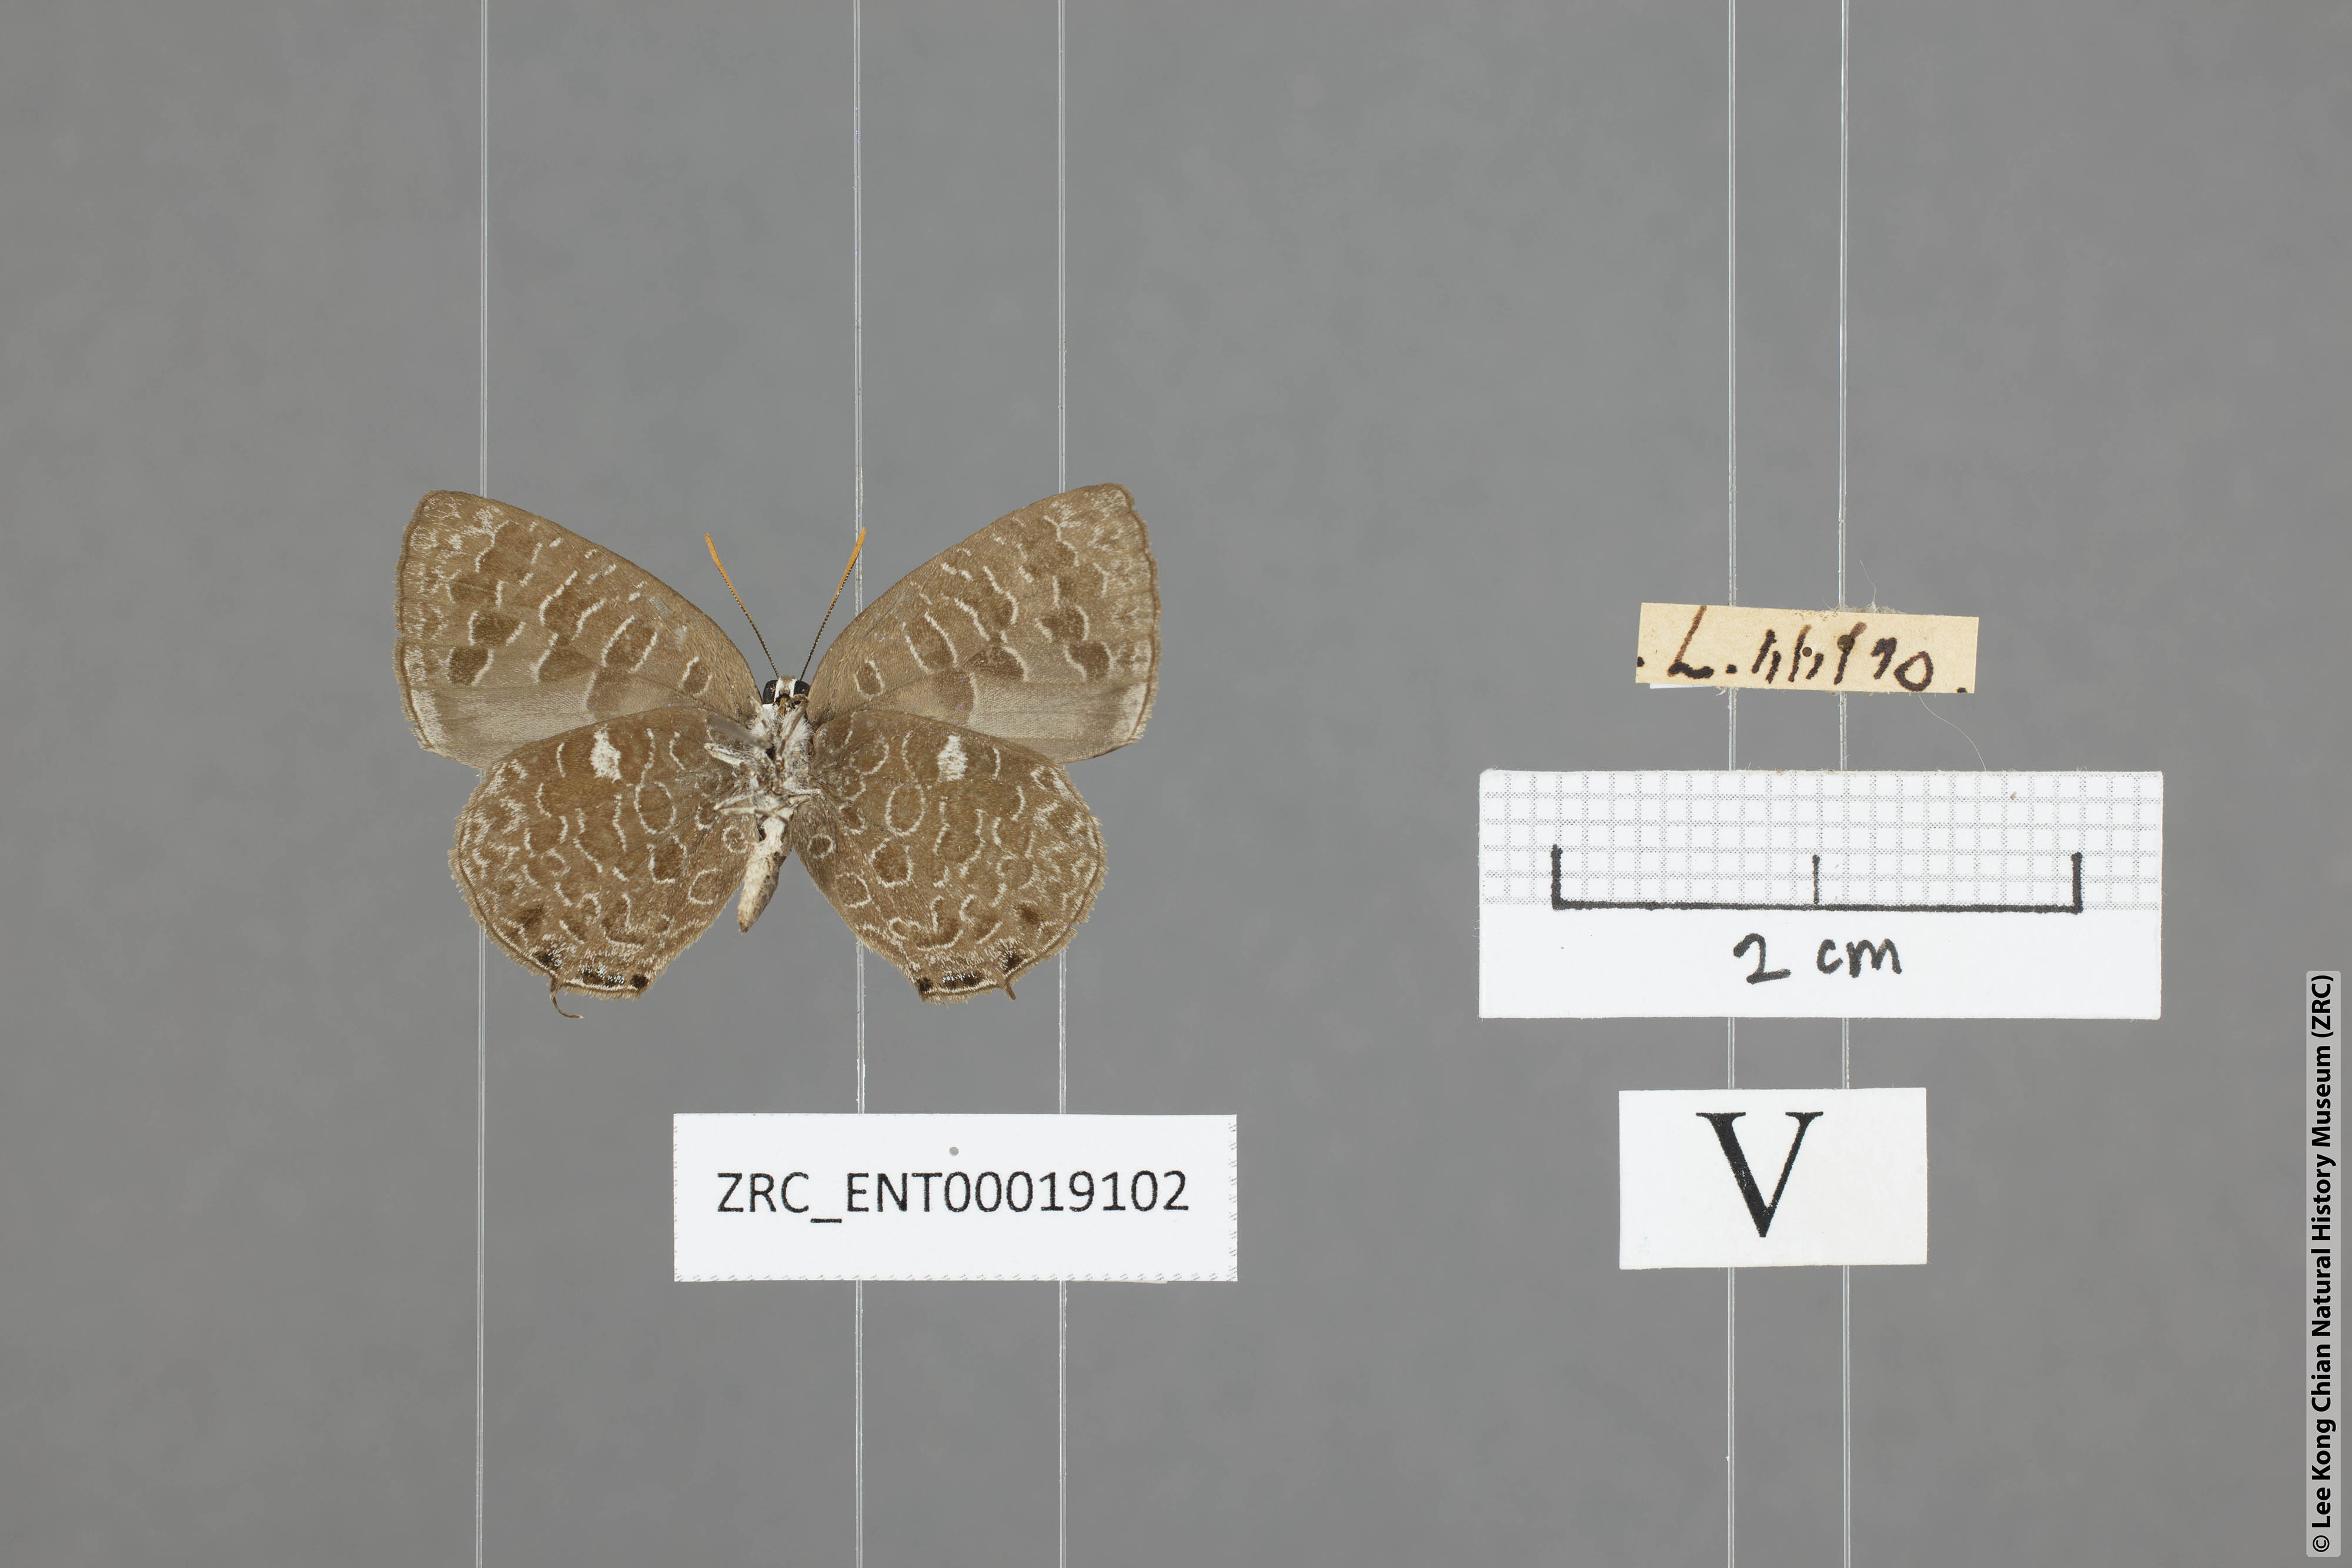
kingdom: Animalia
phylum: Arthropoda
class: Insecta
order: Lepidoptera
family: Lycaenidae
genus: Arhopala
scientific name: Arhopala ammon
